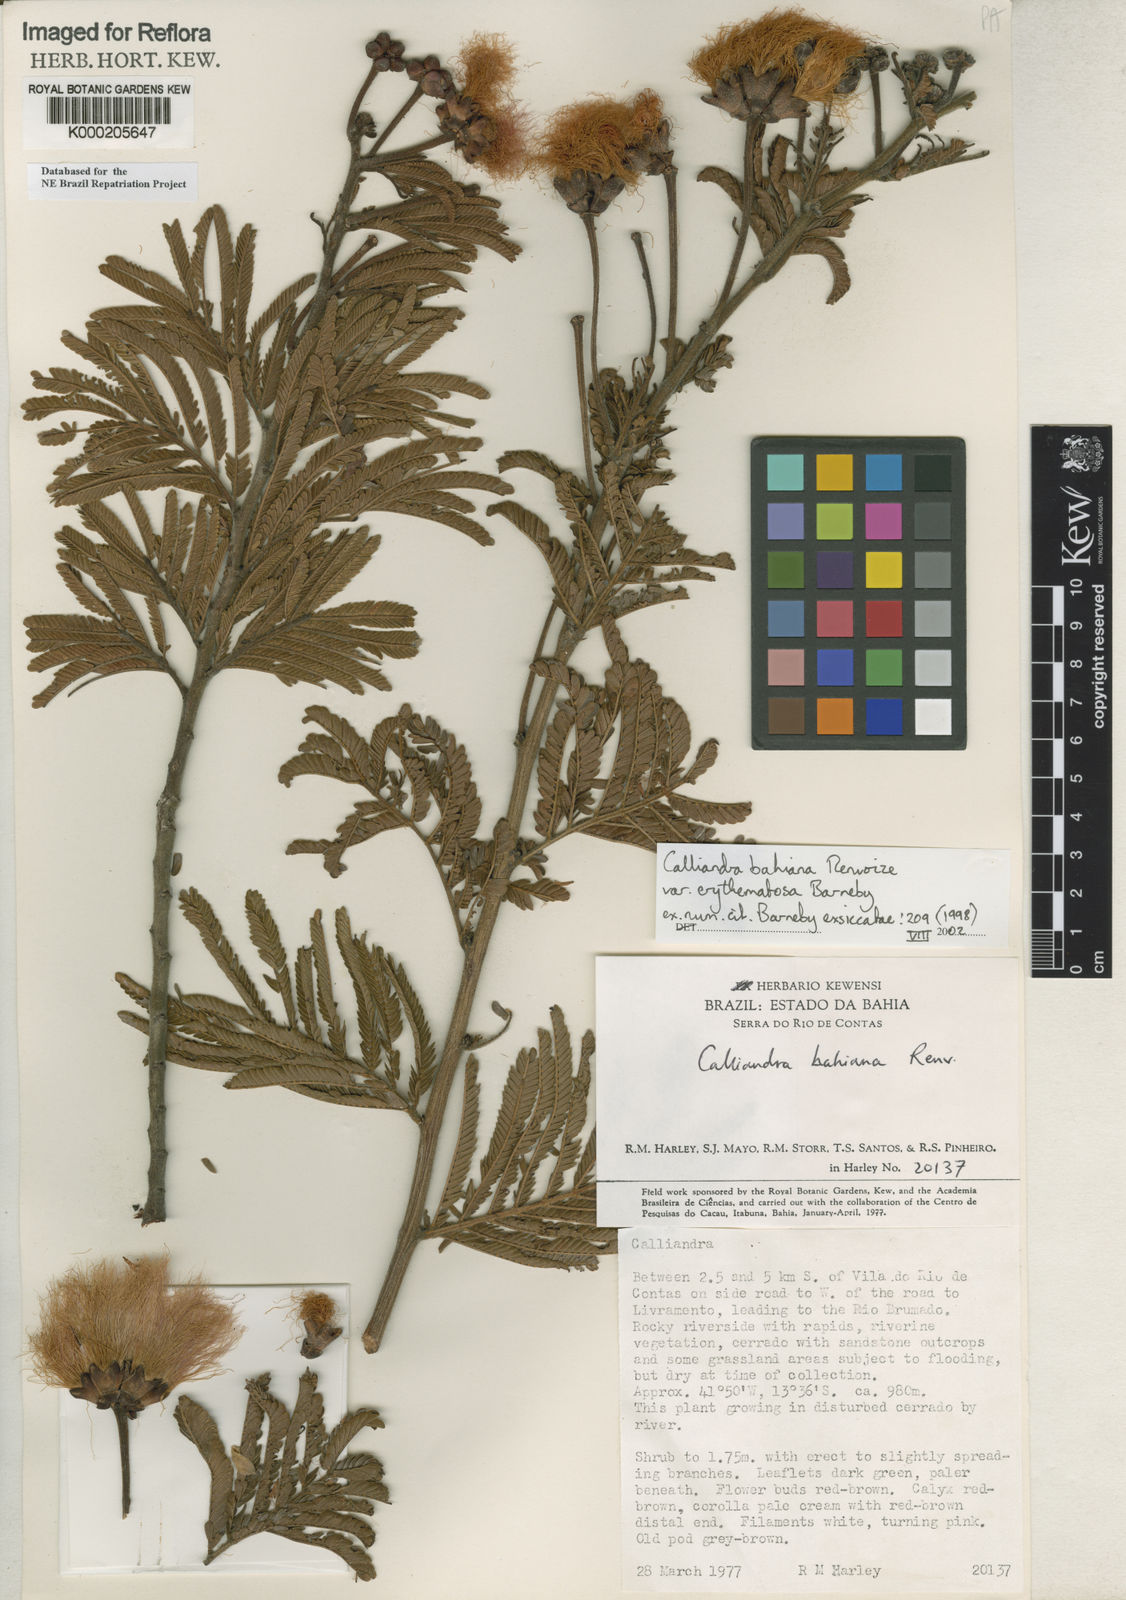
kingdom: Plantae
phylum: Tracheophyta
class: Magnoliopsida
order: Fabales
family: Fabaceae
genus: Calliandra
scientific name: Calliandra bahiana
